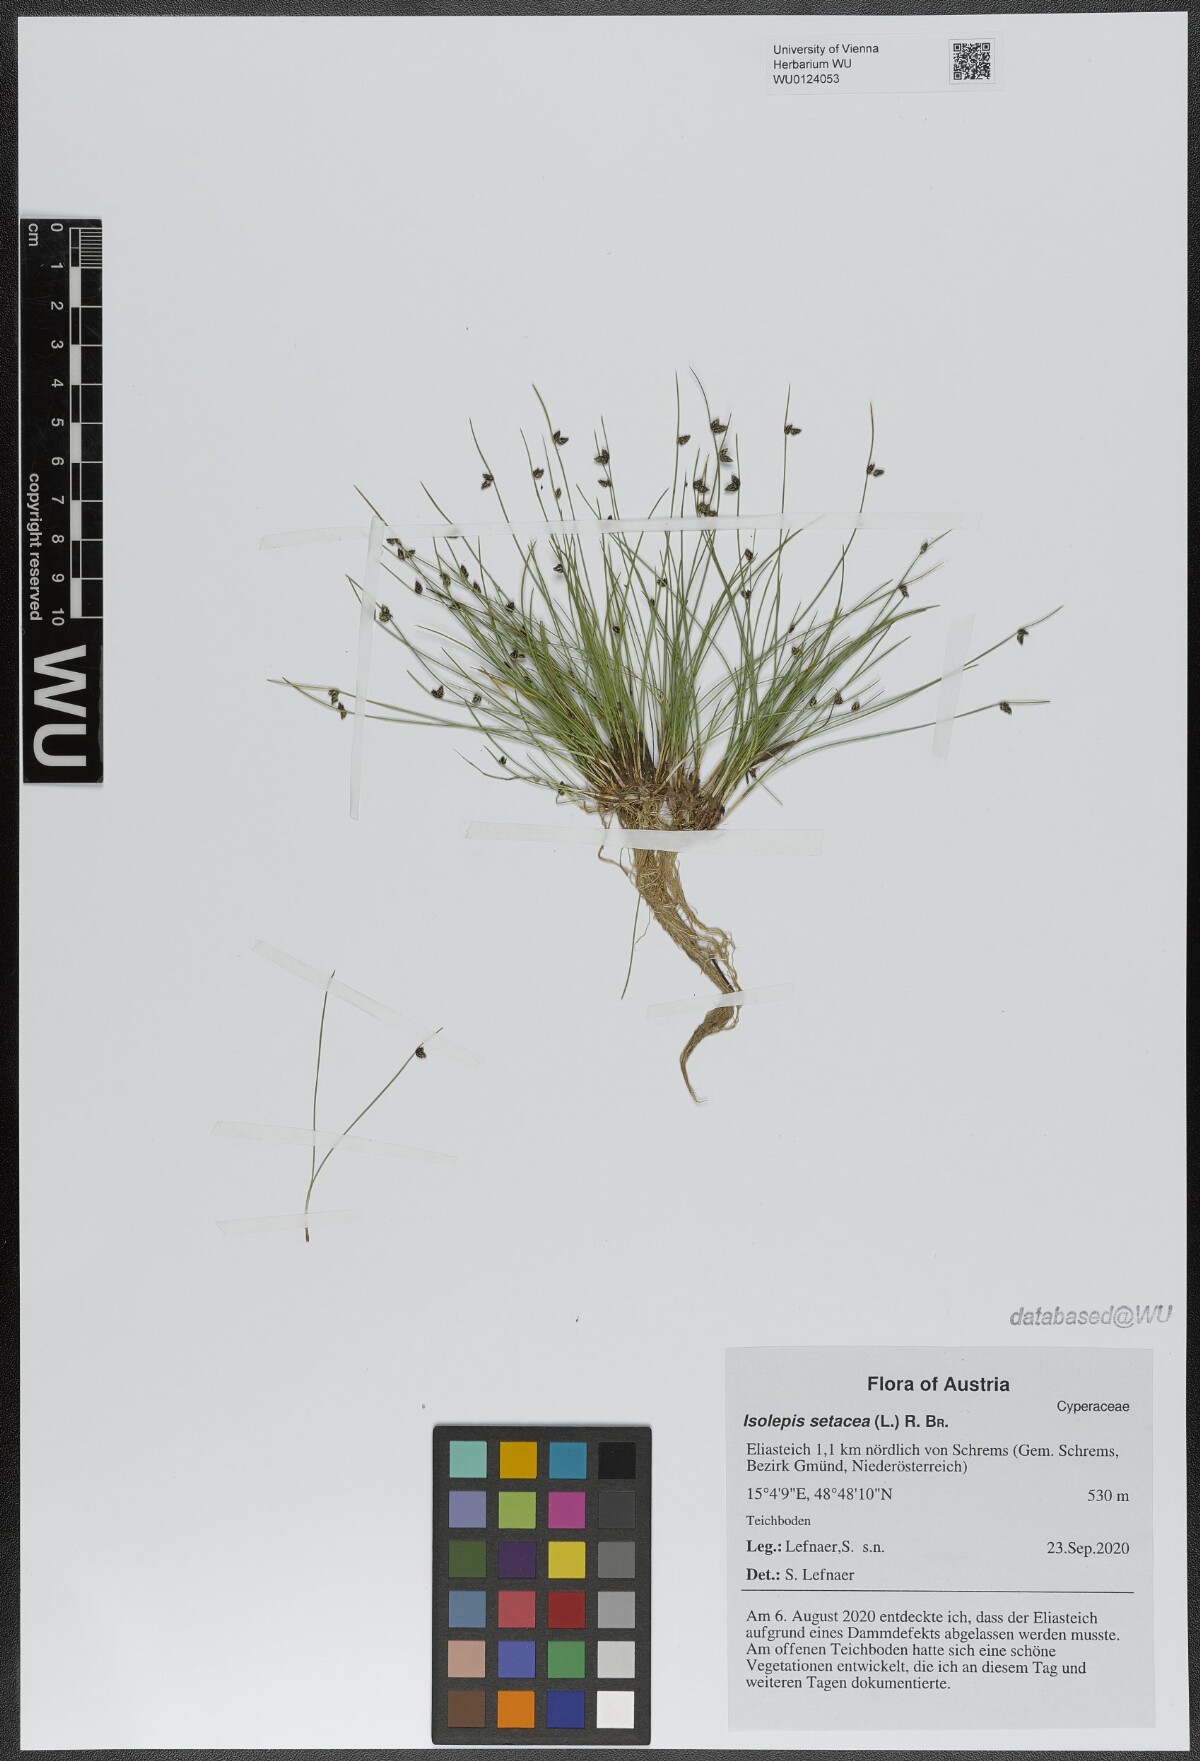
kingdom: Plantae
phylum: Tracheophyta
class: Liliopsida
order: Poales
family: Cyperaceae
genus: Isolepis
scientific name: Isolepis setacea
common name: Bristle club-rush
